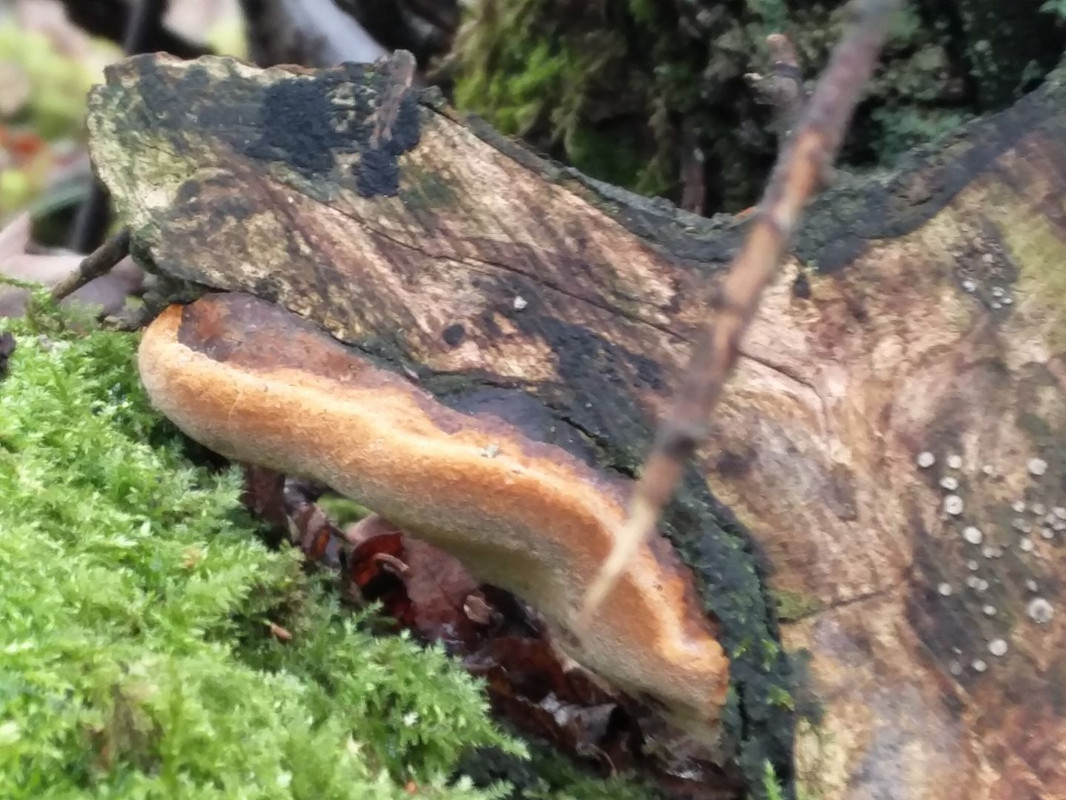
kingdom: Fungi
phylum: Basidiomycota
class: Agaricomycetes
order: Hymenochaetales
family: Hymenochaetaceae
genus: Phellinus
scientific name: Phellinus pomaceus
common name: blomme-ildporesvamp
